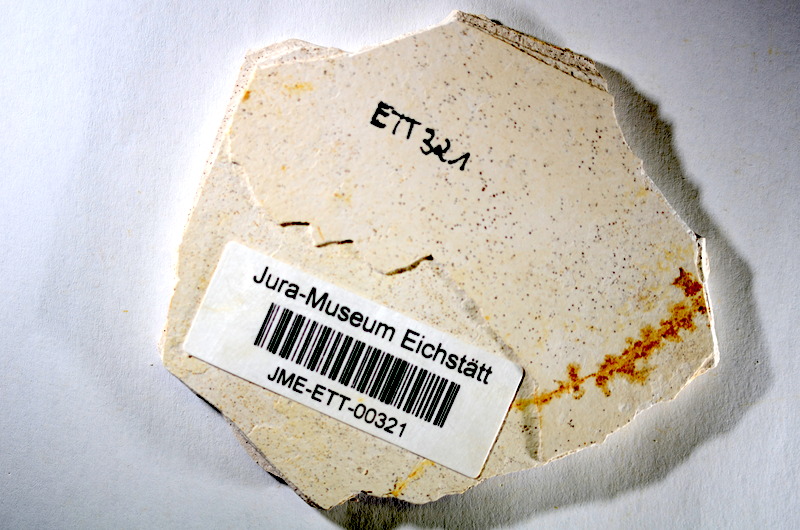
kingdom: Animalia
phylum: Chordata
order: Salmoniformes
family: Orthogonikleithridae
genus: Orthogonikleithrus
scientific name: Orthogonikleithrus hoelli
